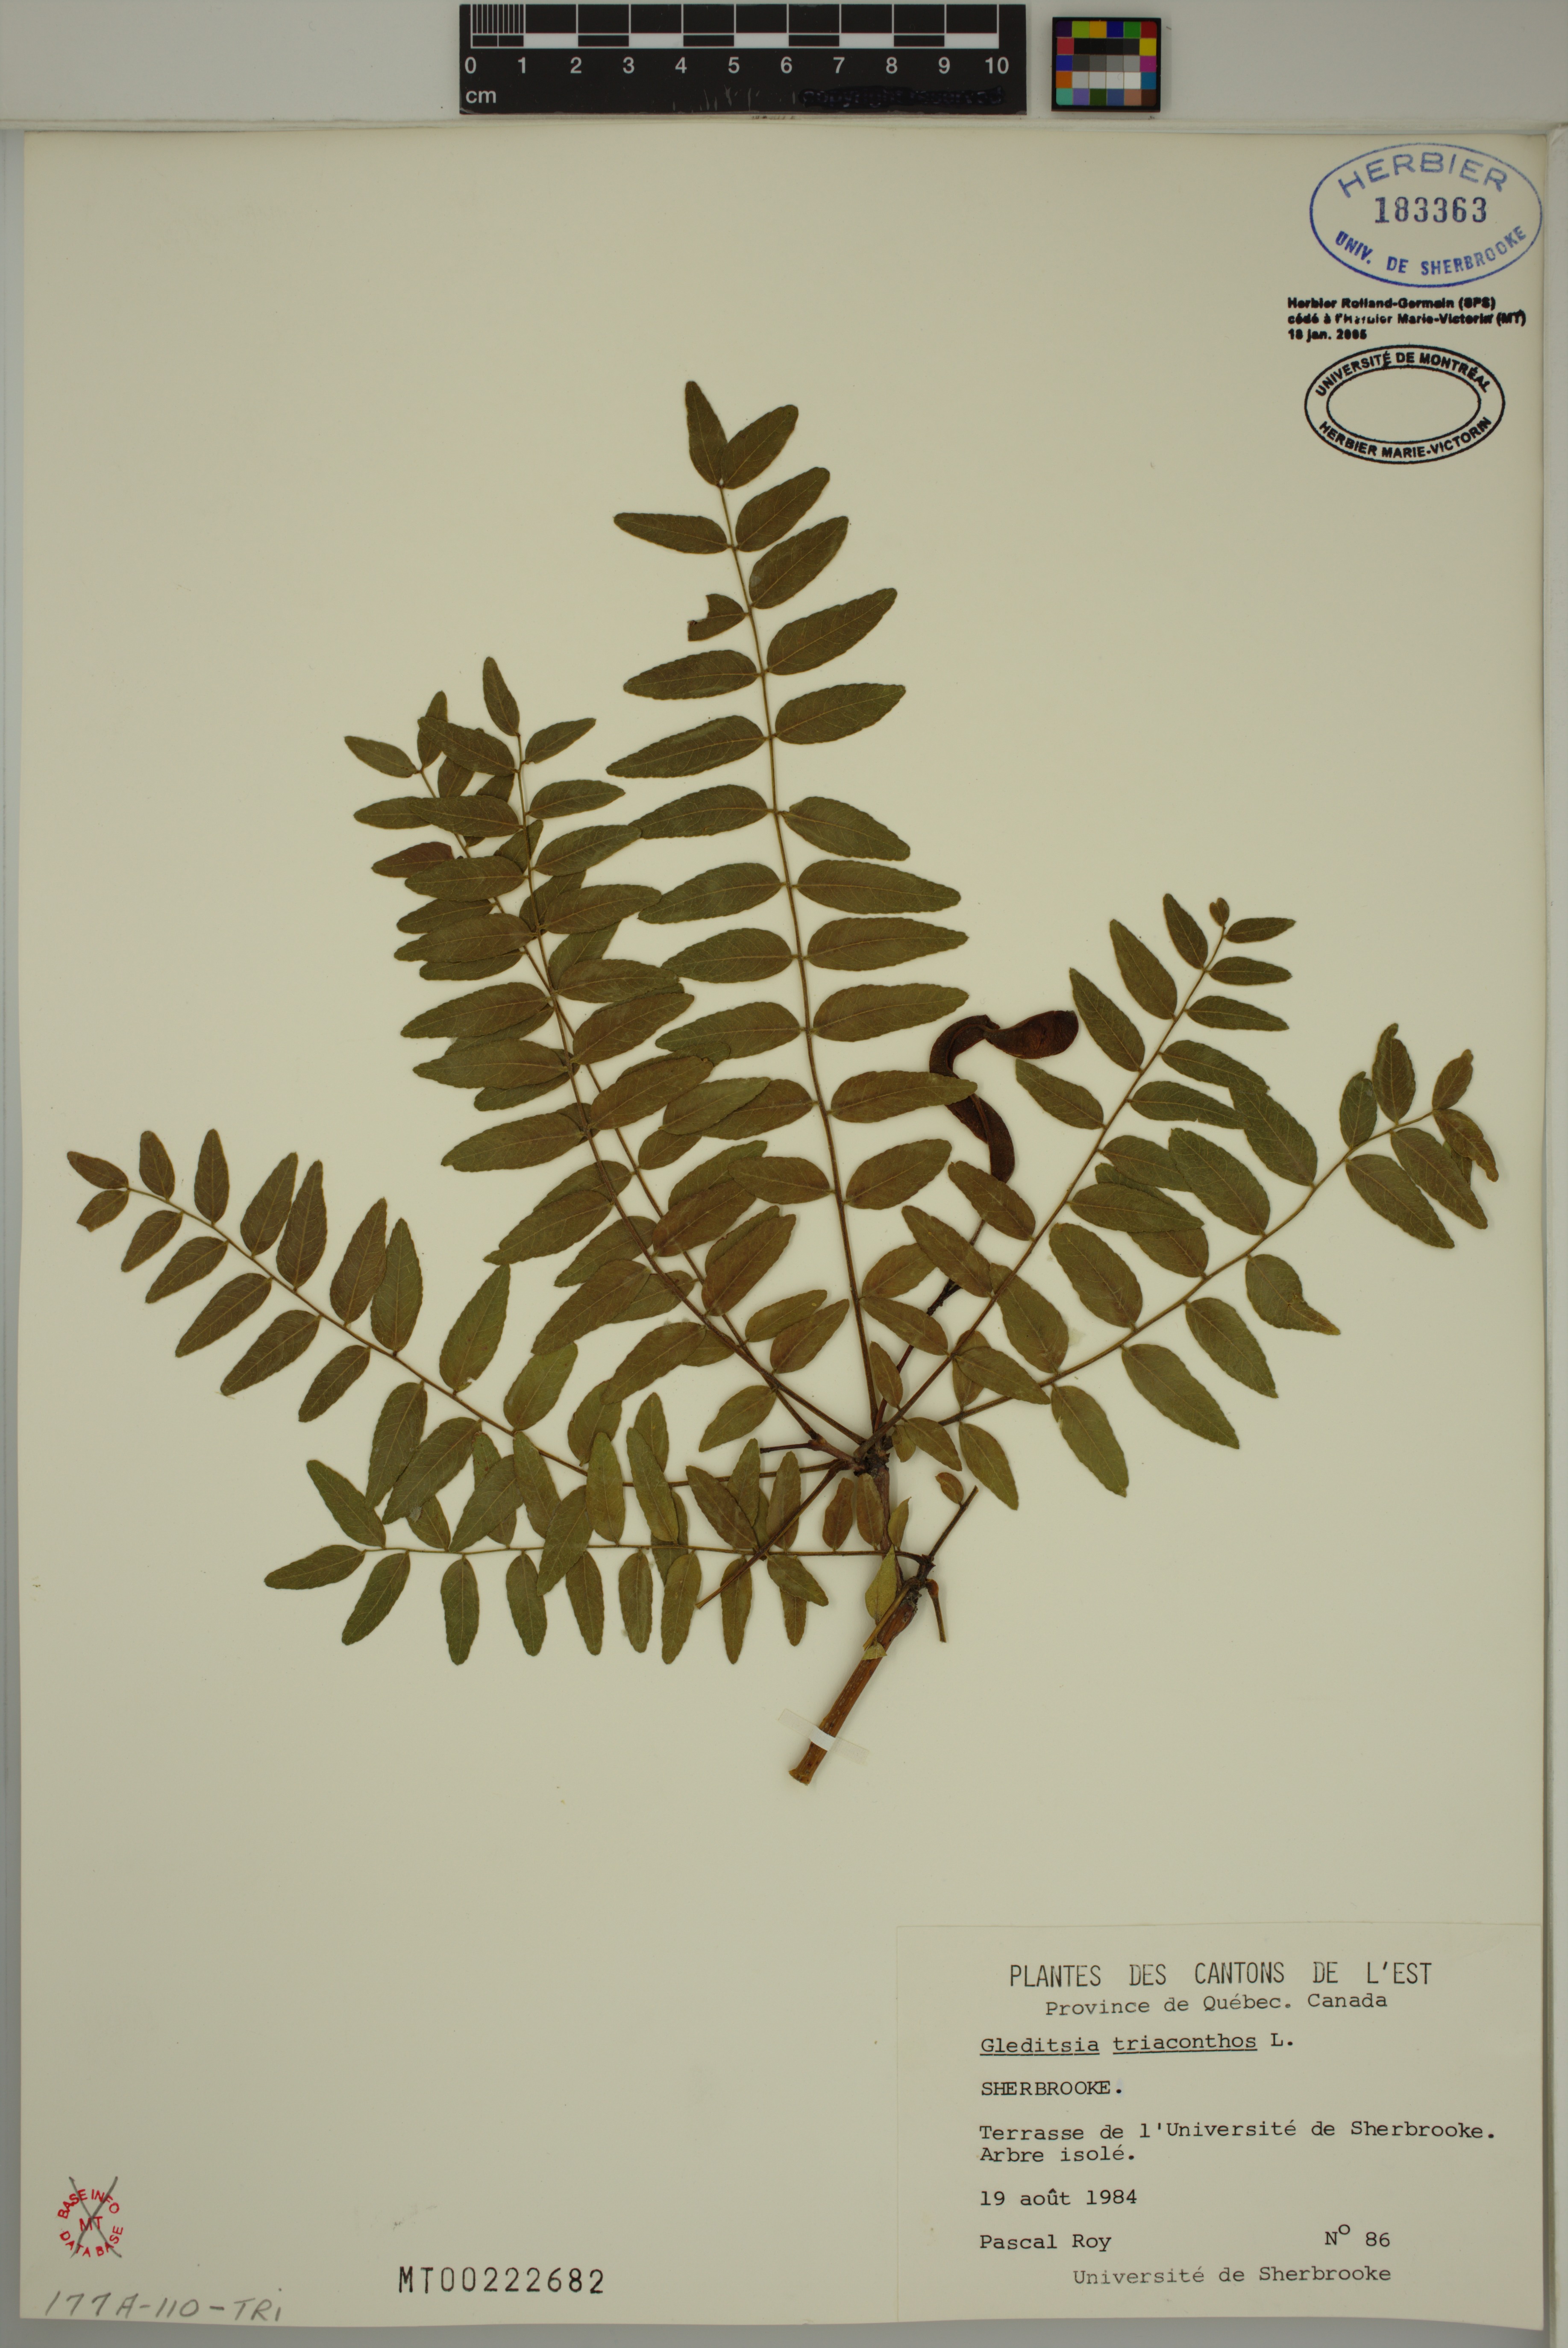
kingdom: Plantae
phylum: Tracheophyta
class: Magnoliopsida
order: Fabales
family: Fabaceae
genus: Gleditsia
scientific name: Gleditsia triacanthos
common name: Common honeylocust
